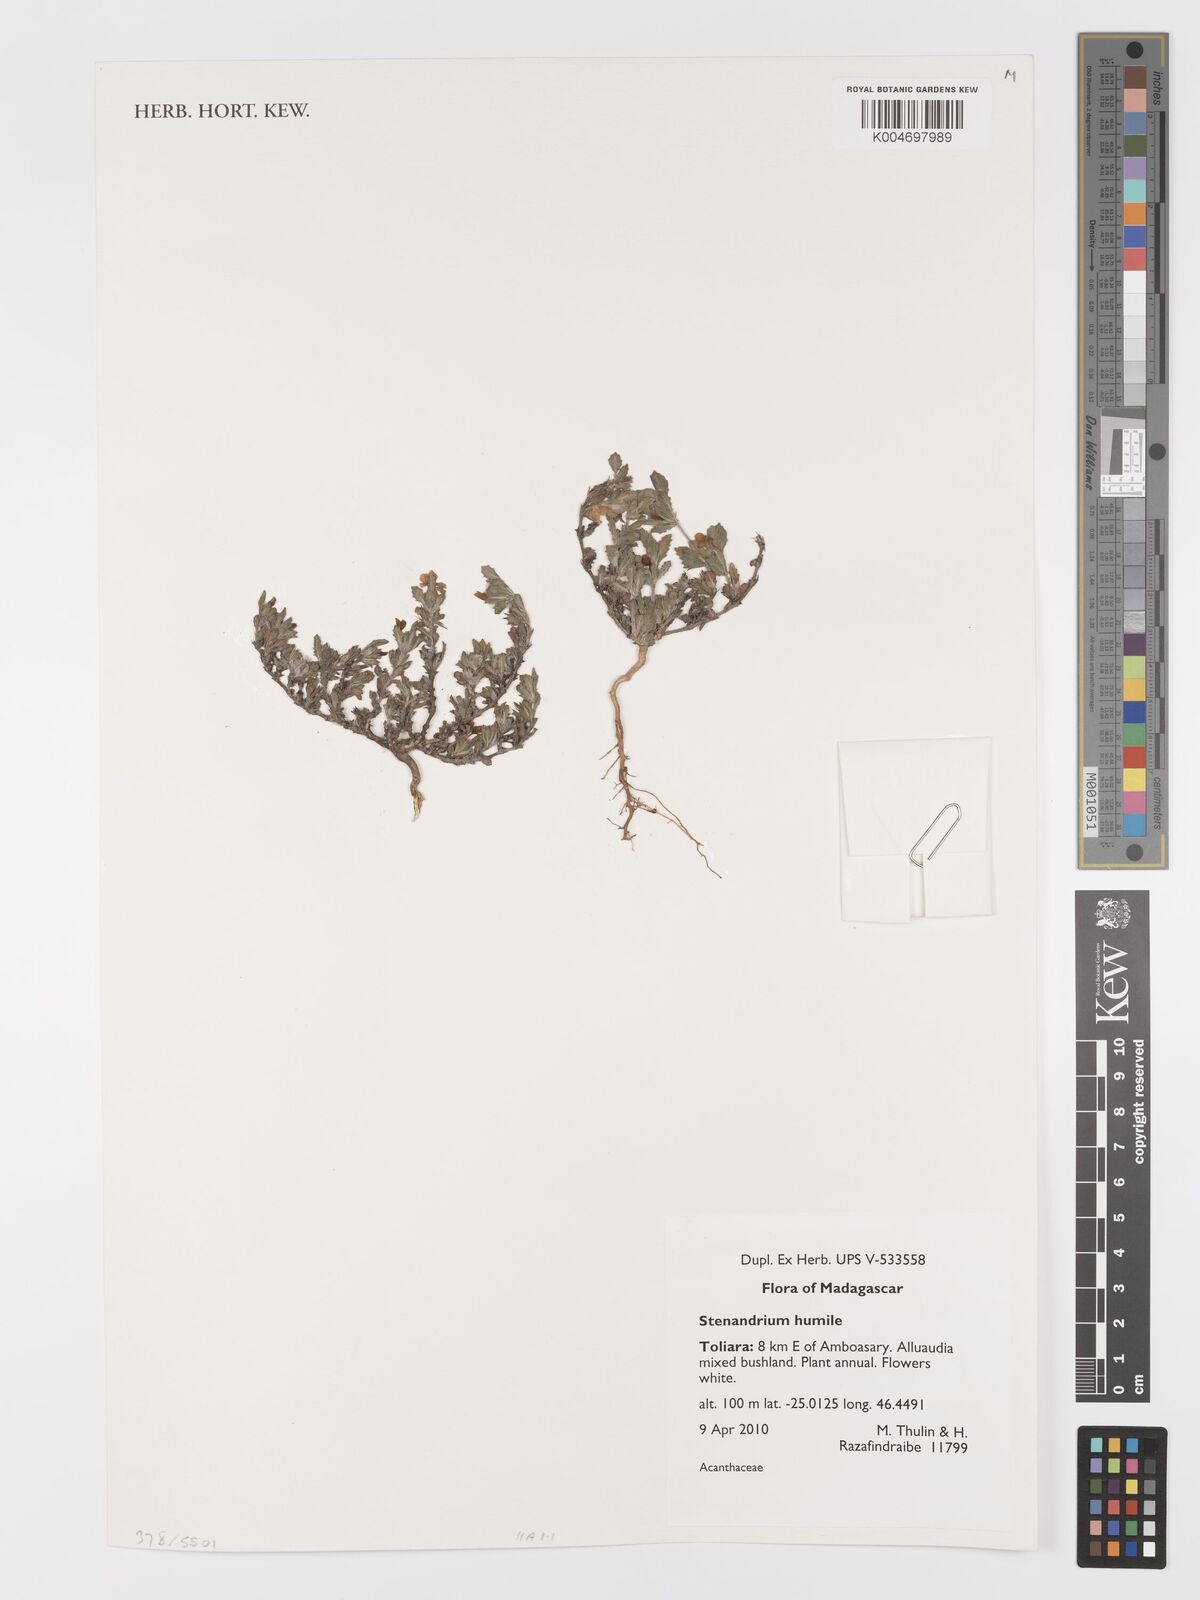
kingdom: Plantae
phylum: Tracheophyta
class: Magnoliopsida
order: Lamiales
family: Acanthaceae
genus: Stenandriopsis
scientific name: Stenandriopsis keraudrenae
